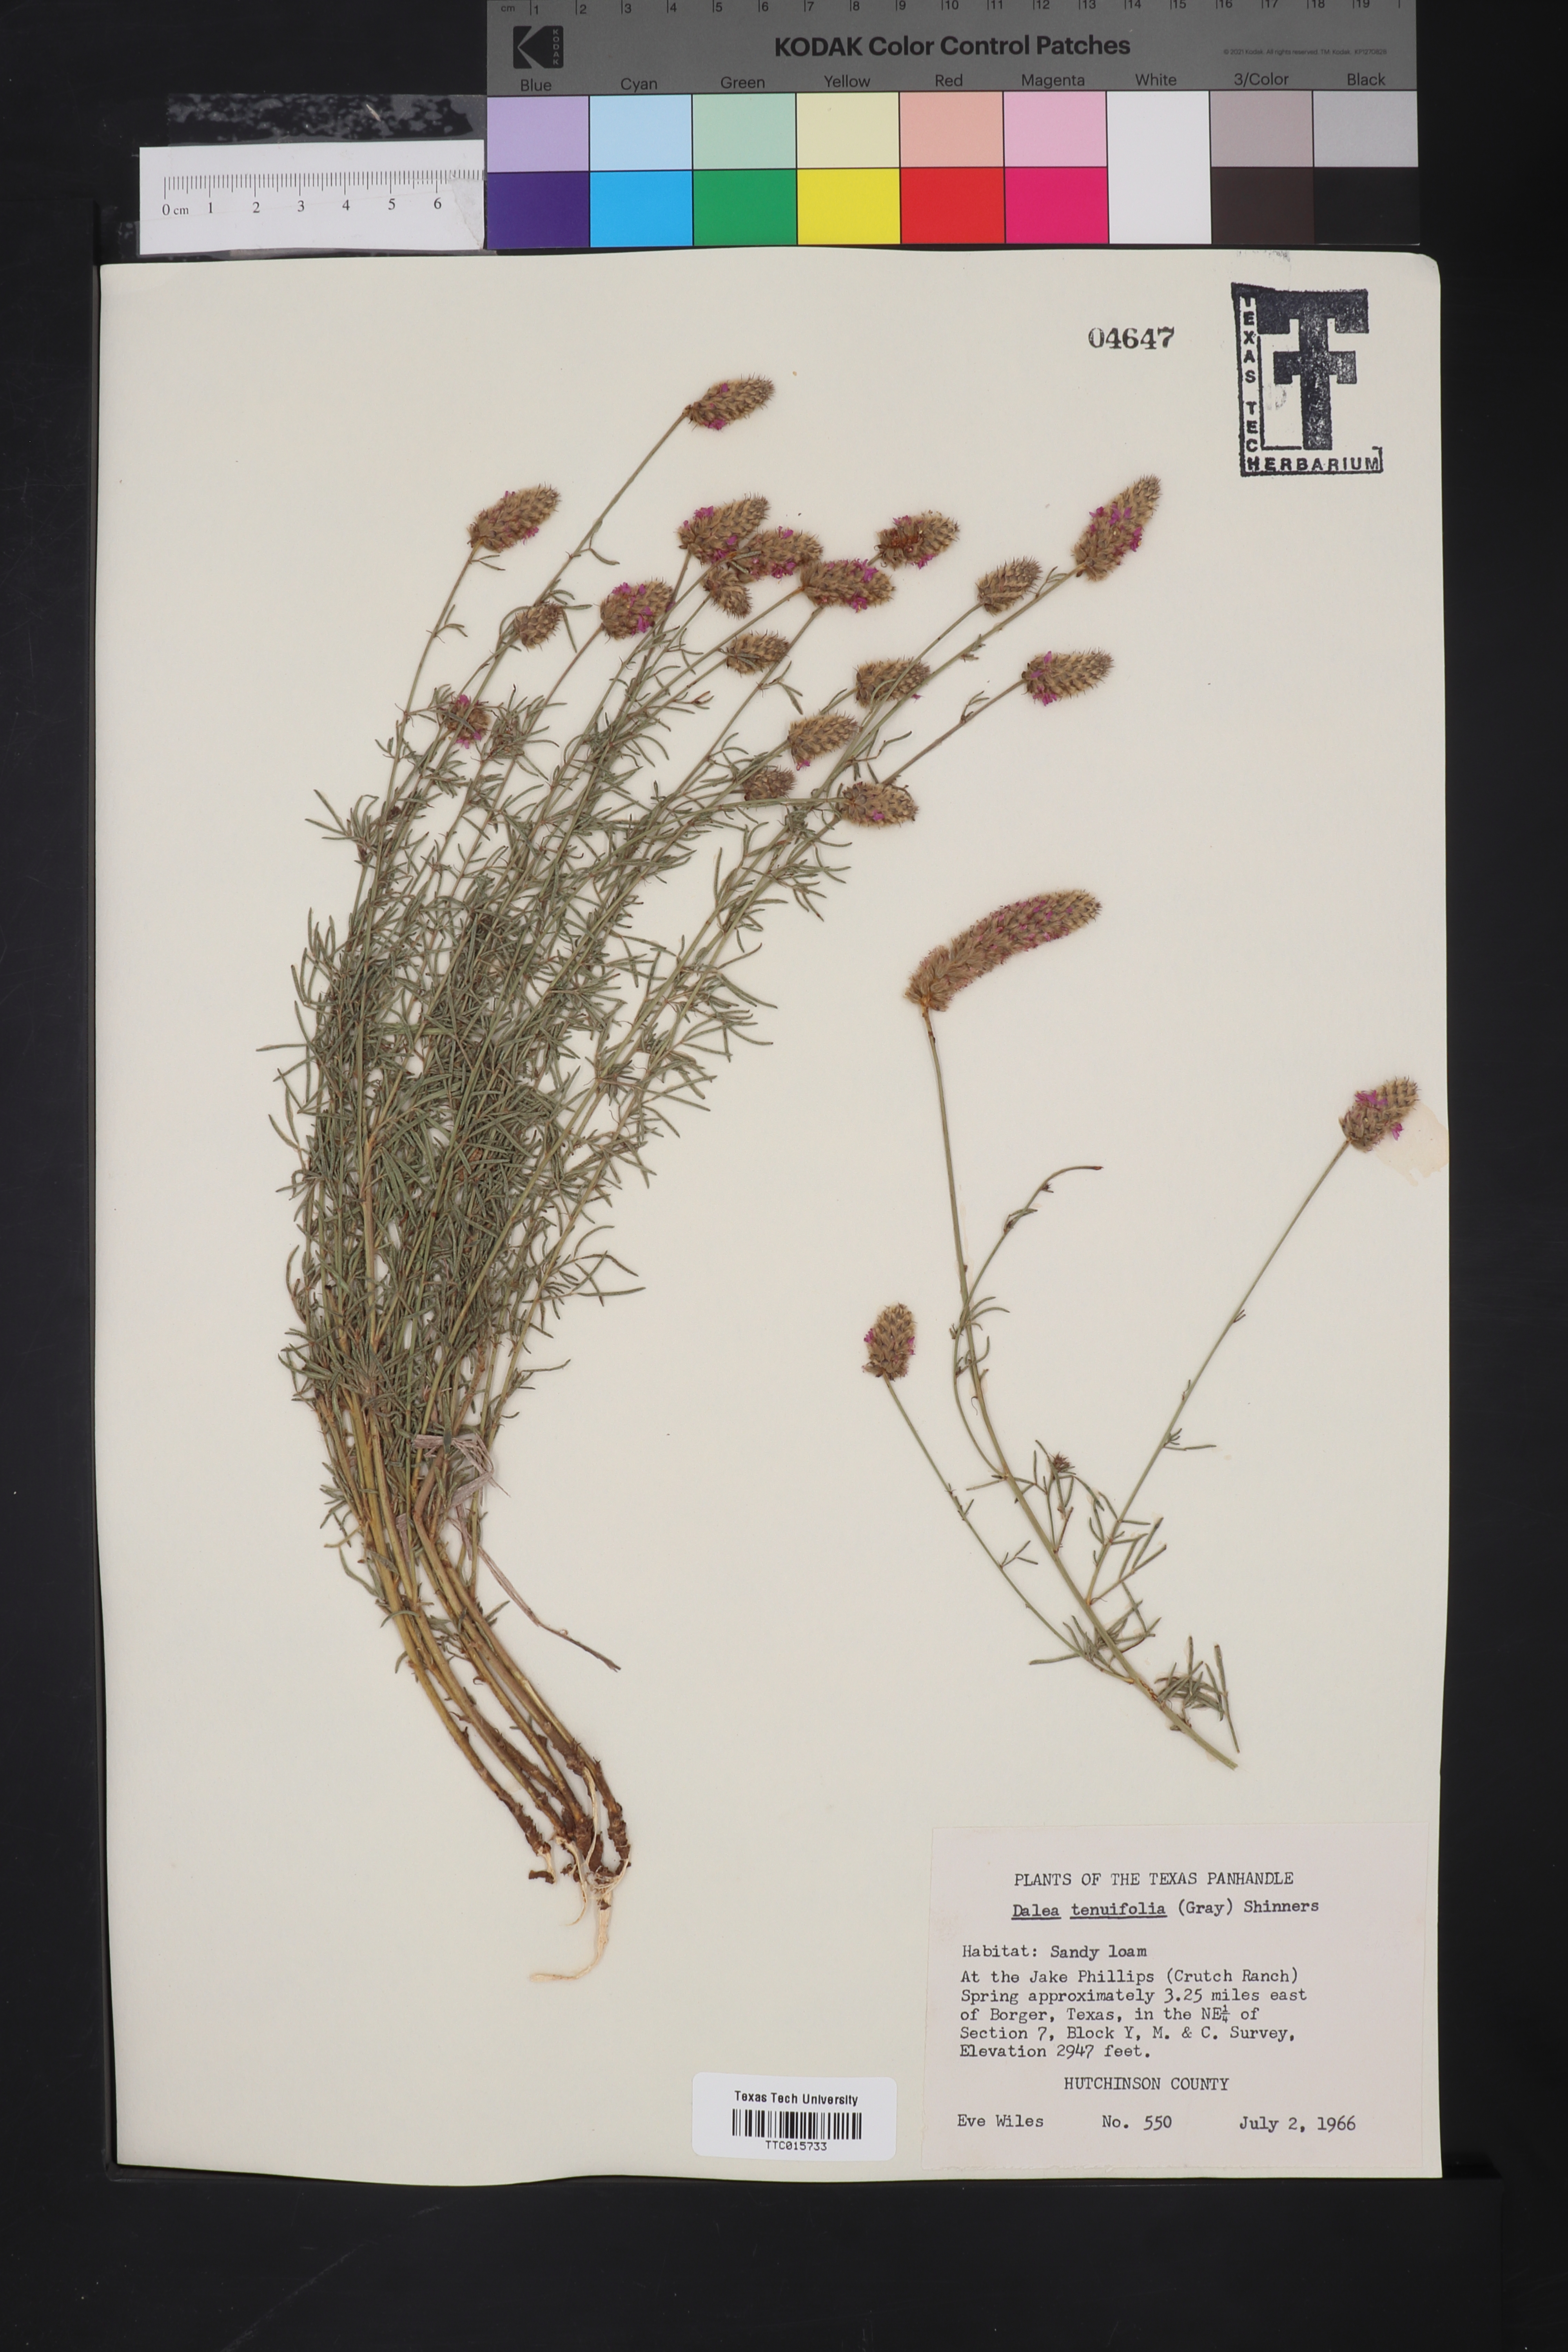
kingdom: Plantae
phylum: Tracheophyta
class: Magnoliopsida
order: Fabales
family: Fabaceae
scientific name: Fabaceae
